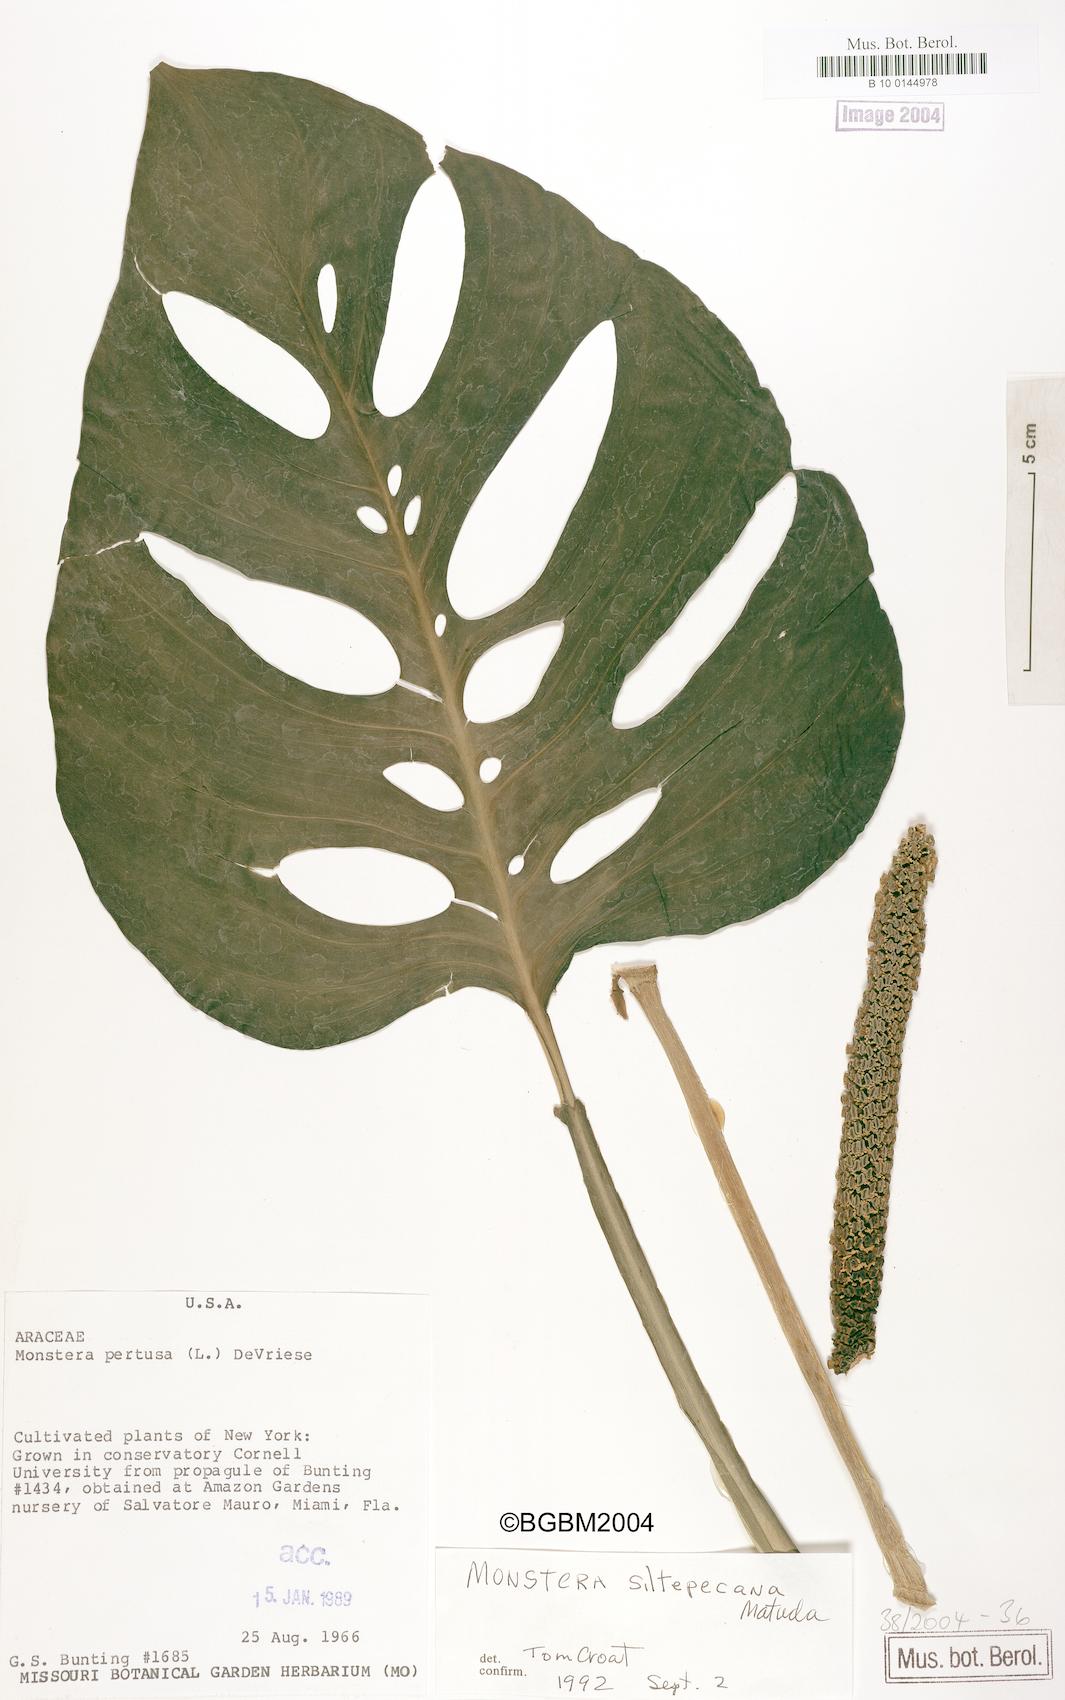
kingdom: Plantae
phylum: Tracheophyta
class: Liliopsida
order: Alismatales
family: Araceae
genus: Monstera
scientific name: Monstera adansonii
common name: Tarovine
